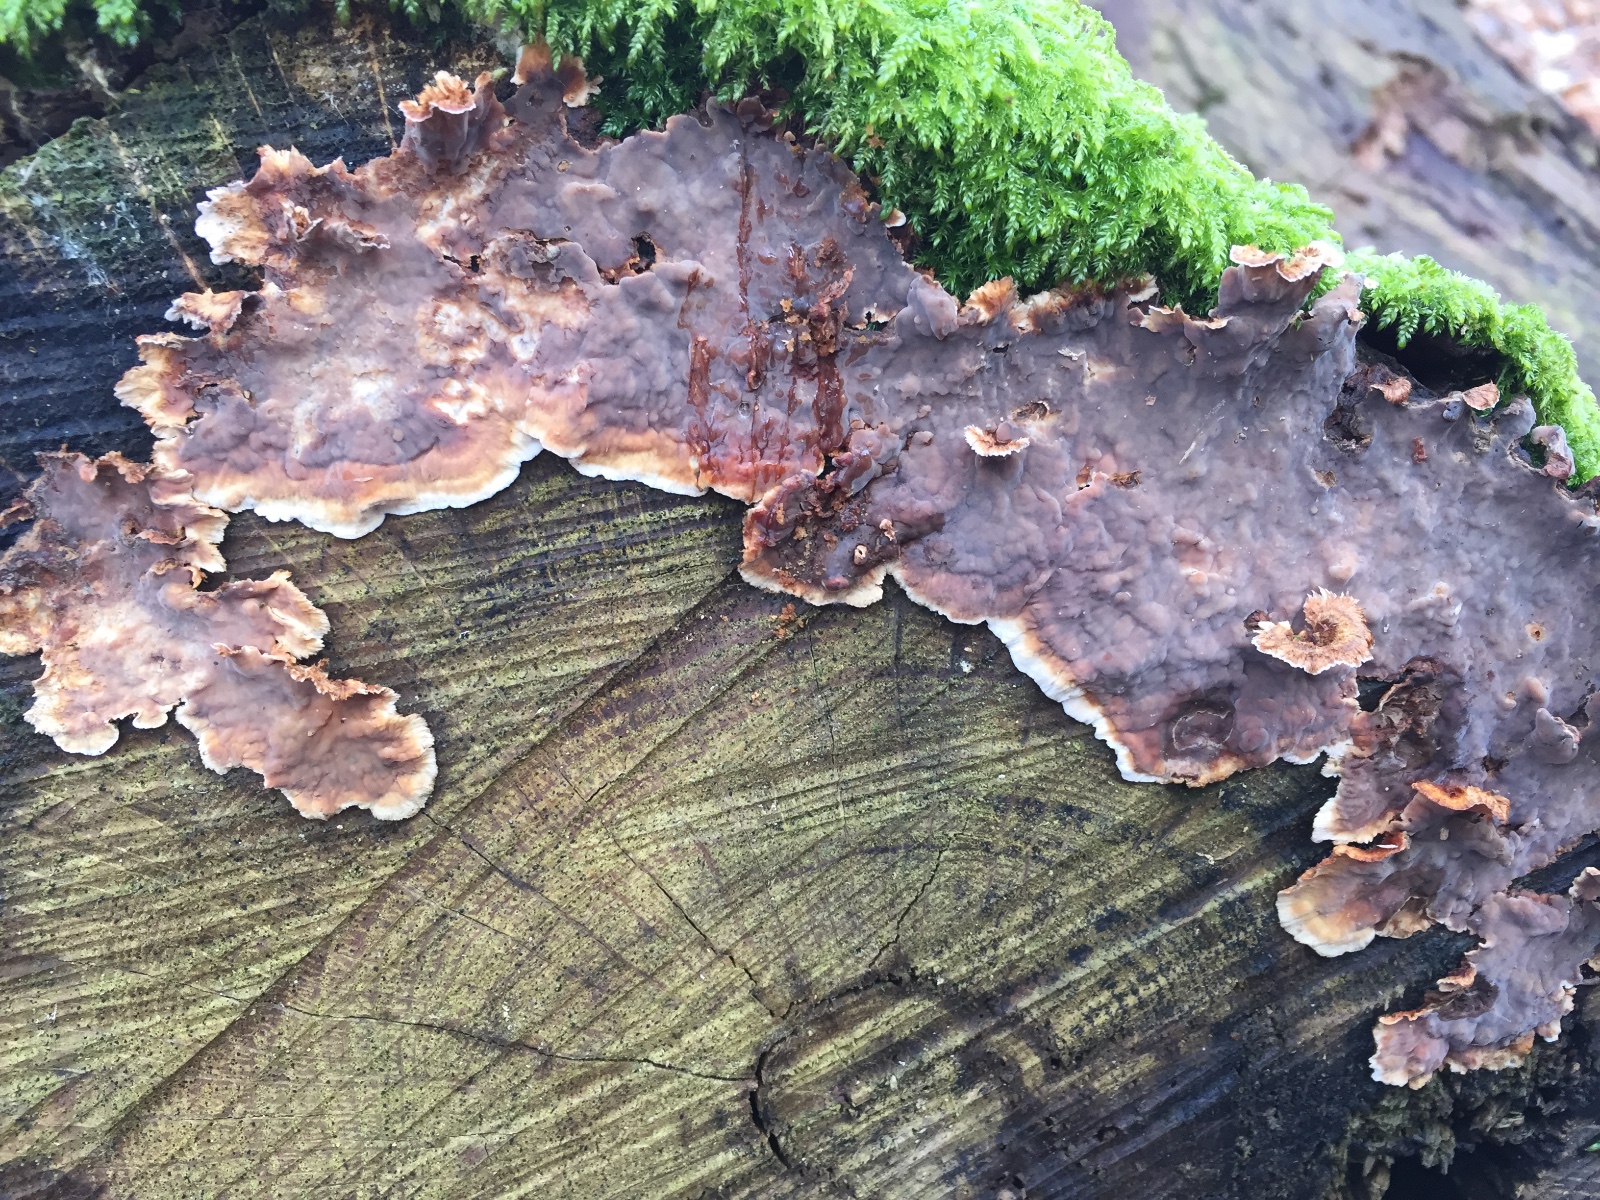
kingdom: Fungi
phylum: Basidiomycota
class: Agaricomycetes
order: Russulales
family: Stereaceae
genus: Stereum
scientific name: Stereum rugosum
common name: rynket lædersvamp
